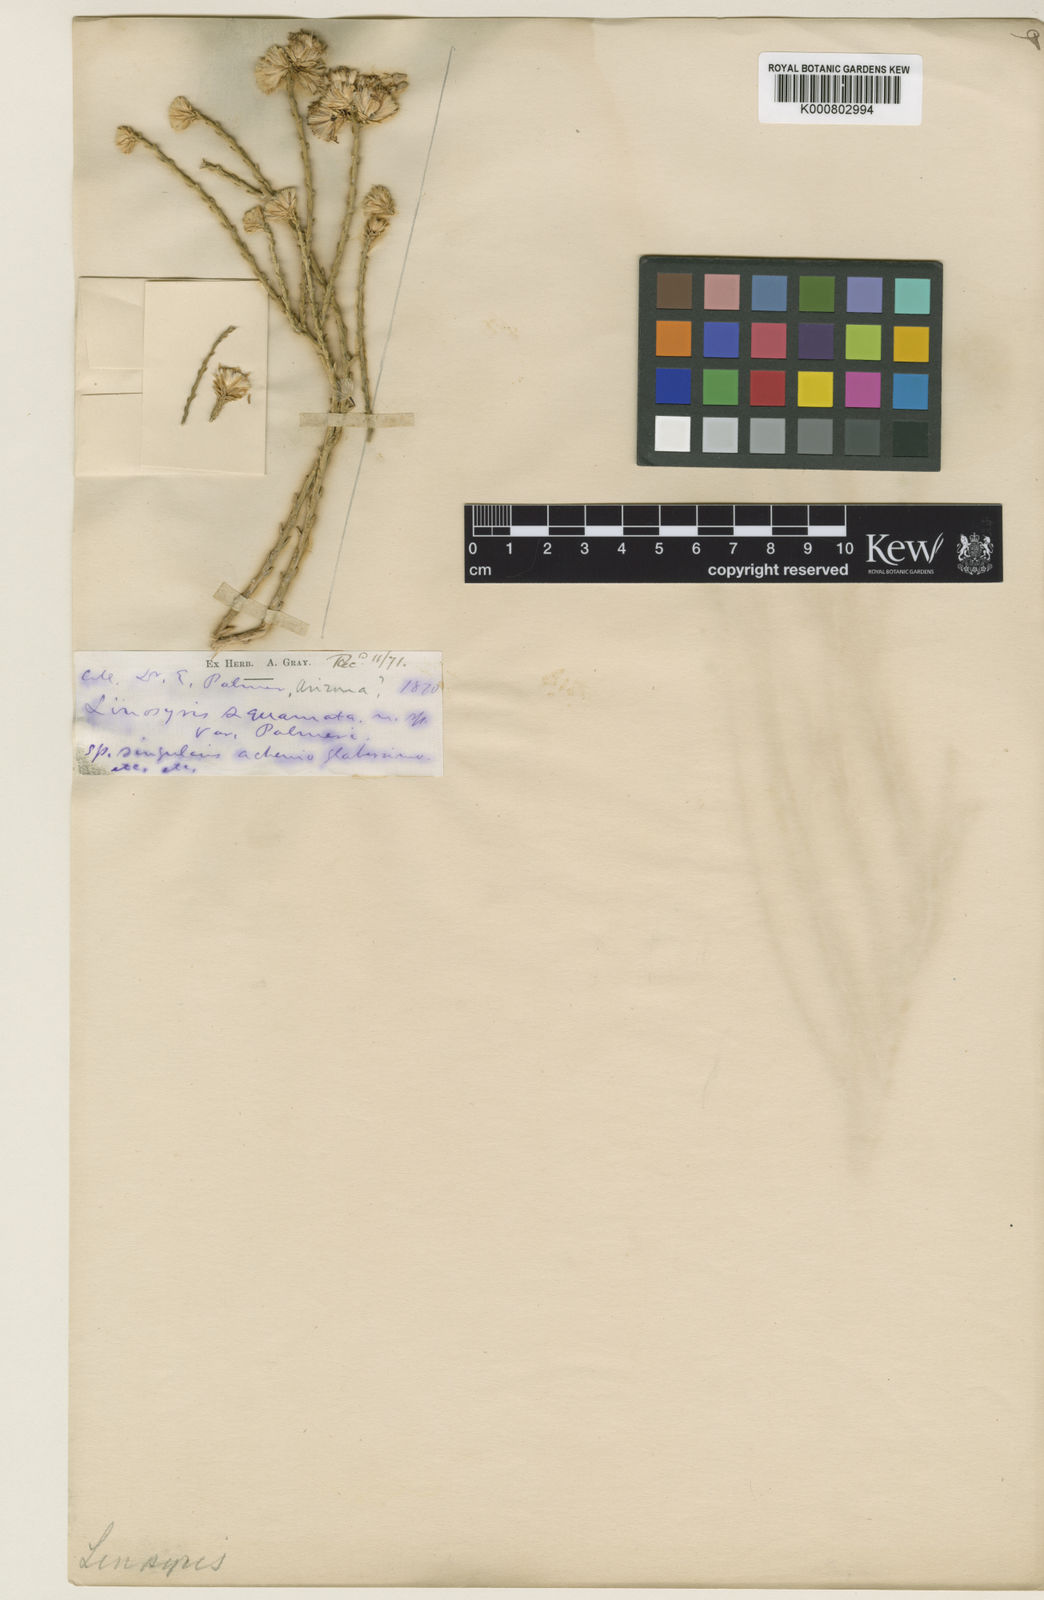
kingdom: Plantae
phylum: Tracheophyta
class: Magnoliopsida
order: Asterales
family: Asteraceae
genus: Lepidospartum
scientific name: Lepidospartum squamatum
